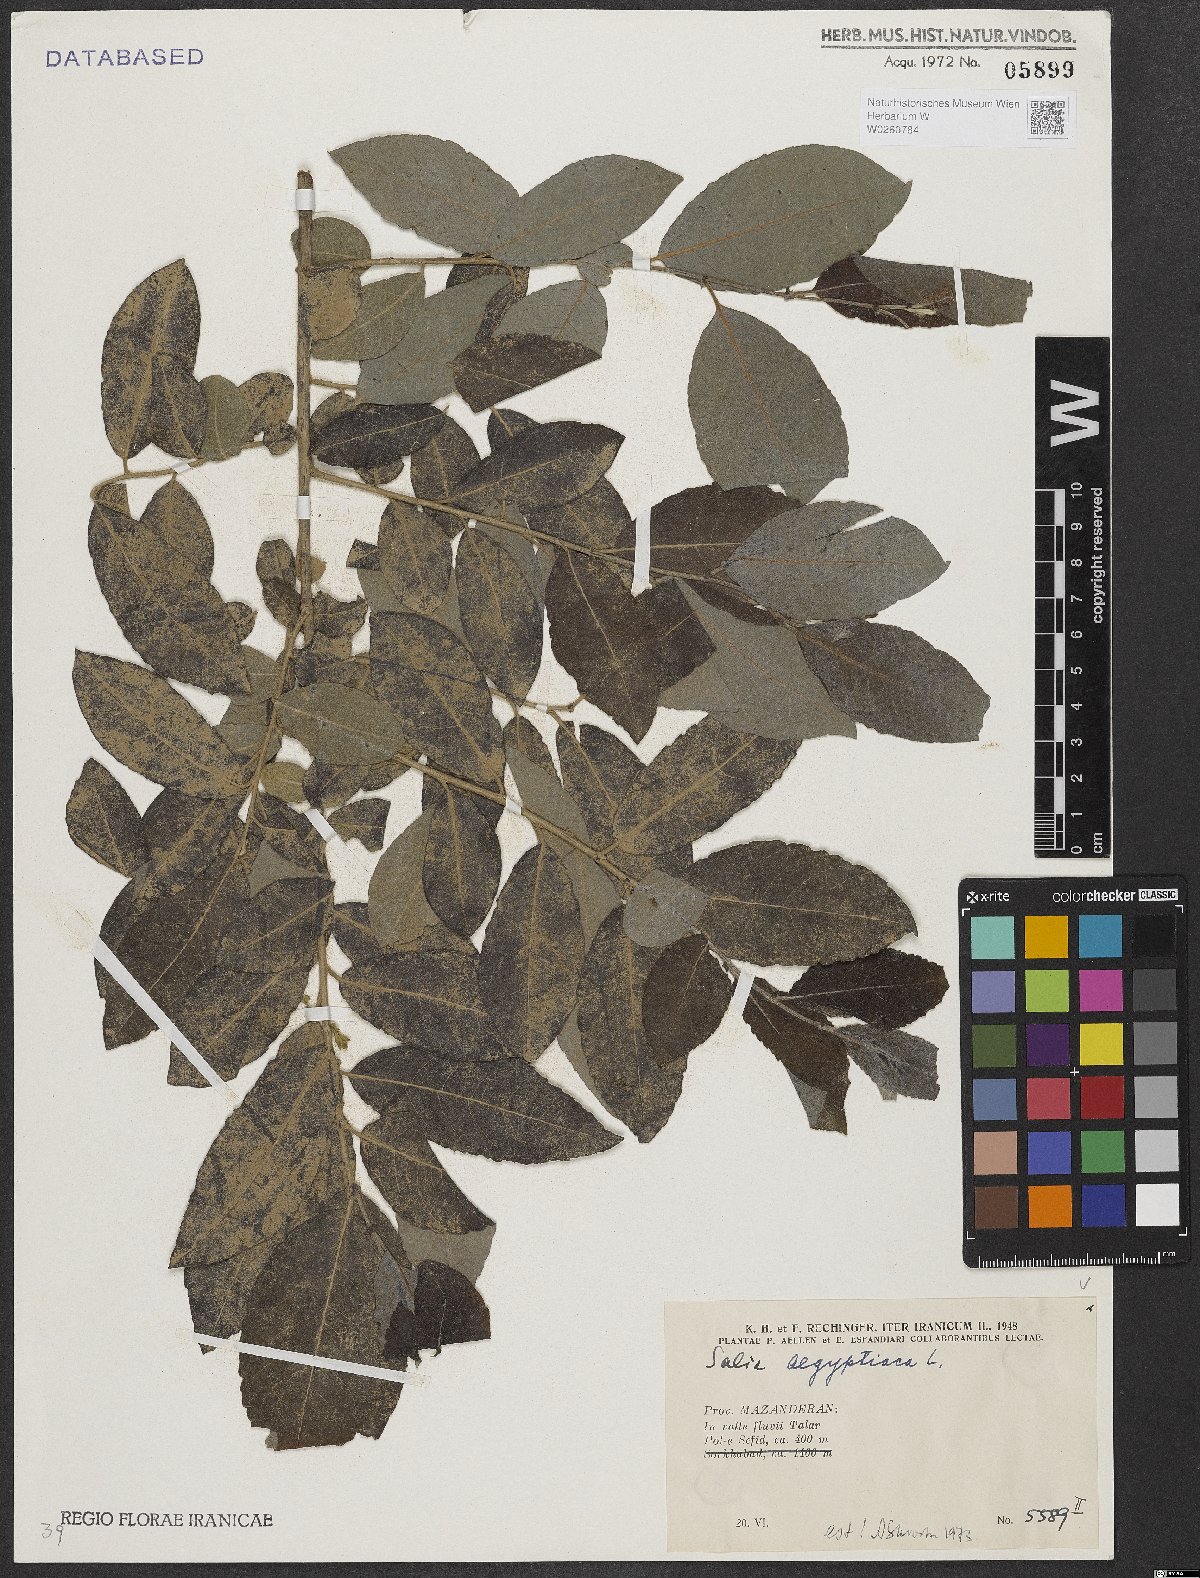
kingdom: Plantae
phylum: Tracheophyta
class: Magnoliopsida
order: Malpighiales
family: Salicaceae
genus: Salix
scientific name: Salix aegyptiaca
